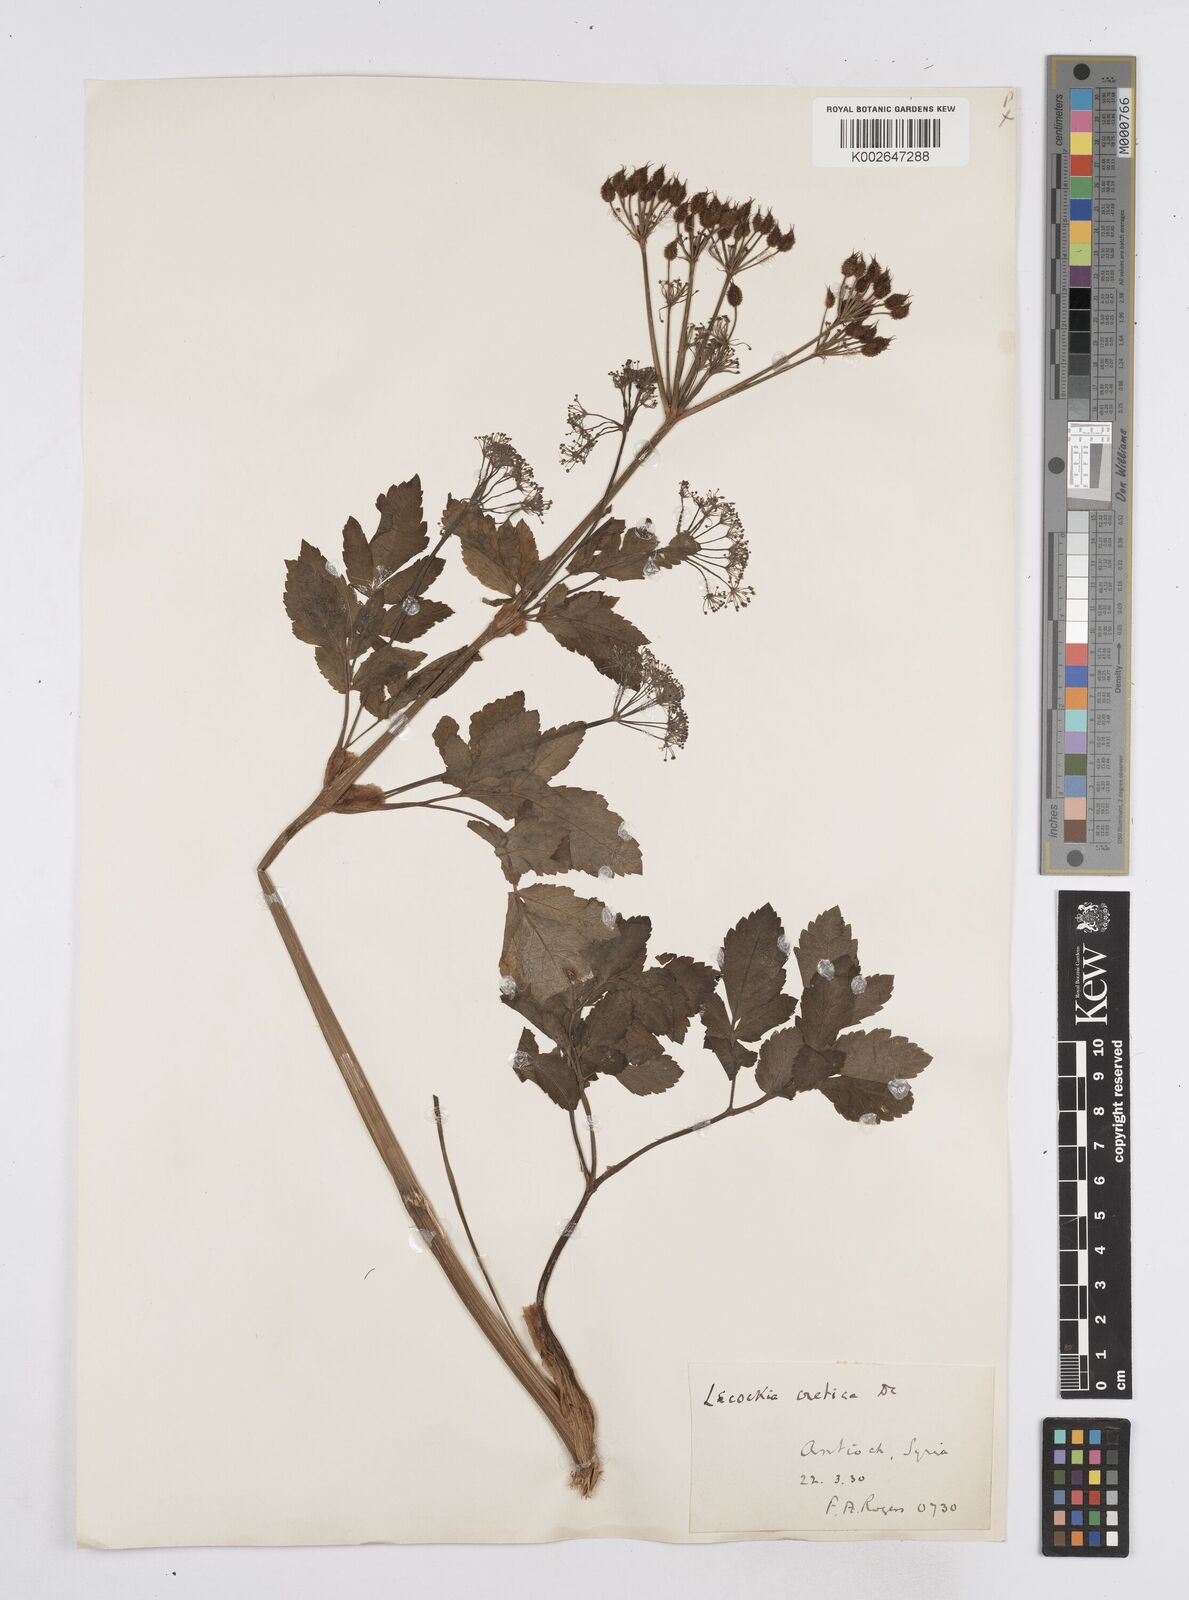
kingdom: Plantae
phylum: Tracheophyta
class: Magnoliopsida
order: Apiales
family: Apiaceae
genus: Lecokia
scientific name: Lecokia cretica
